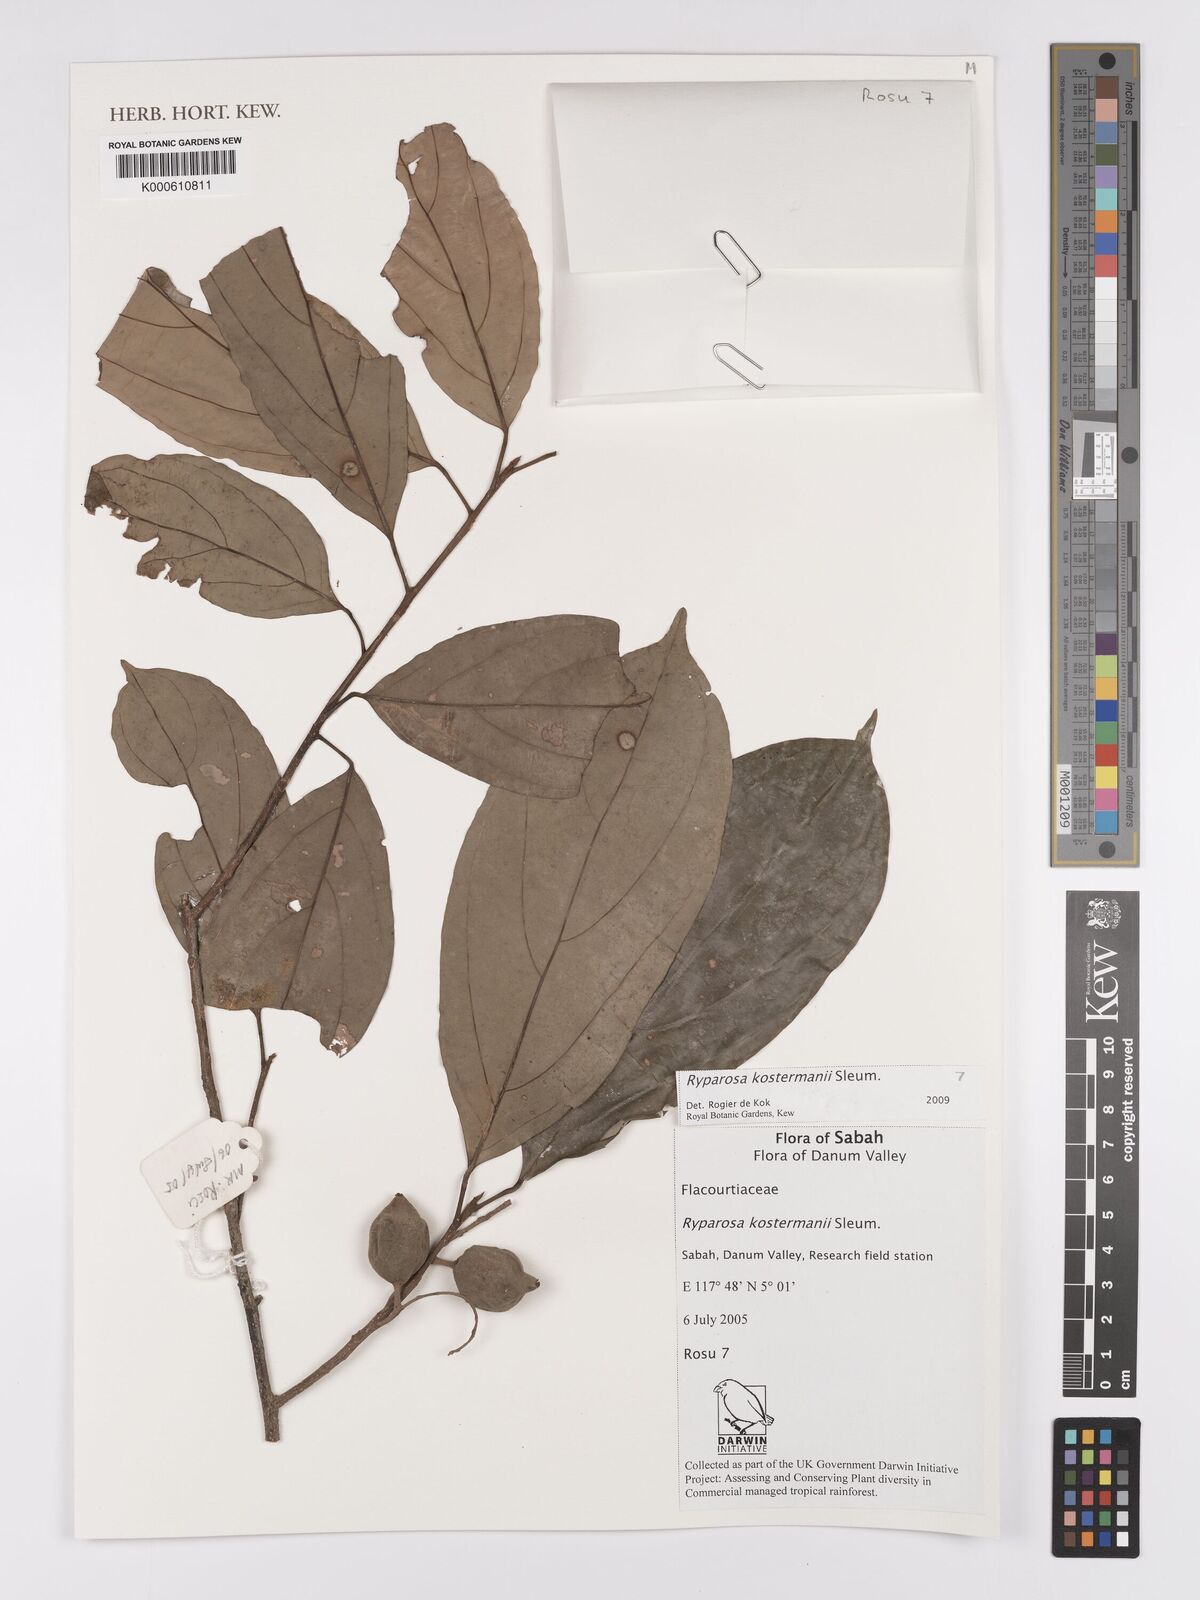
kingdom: Plantae
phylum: Tracheophyta
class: Magnoliopsida
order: Malpighiales
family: Achariaceae
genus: Ryparosa
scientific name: Ryparosa
